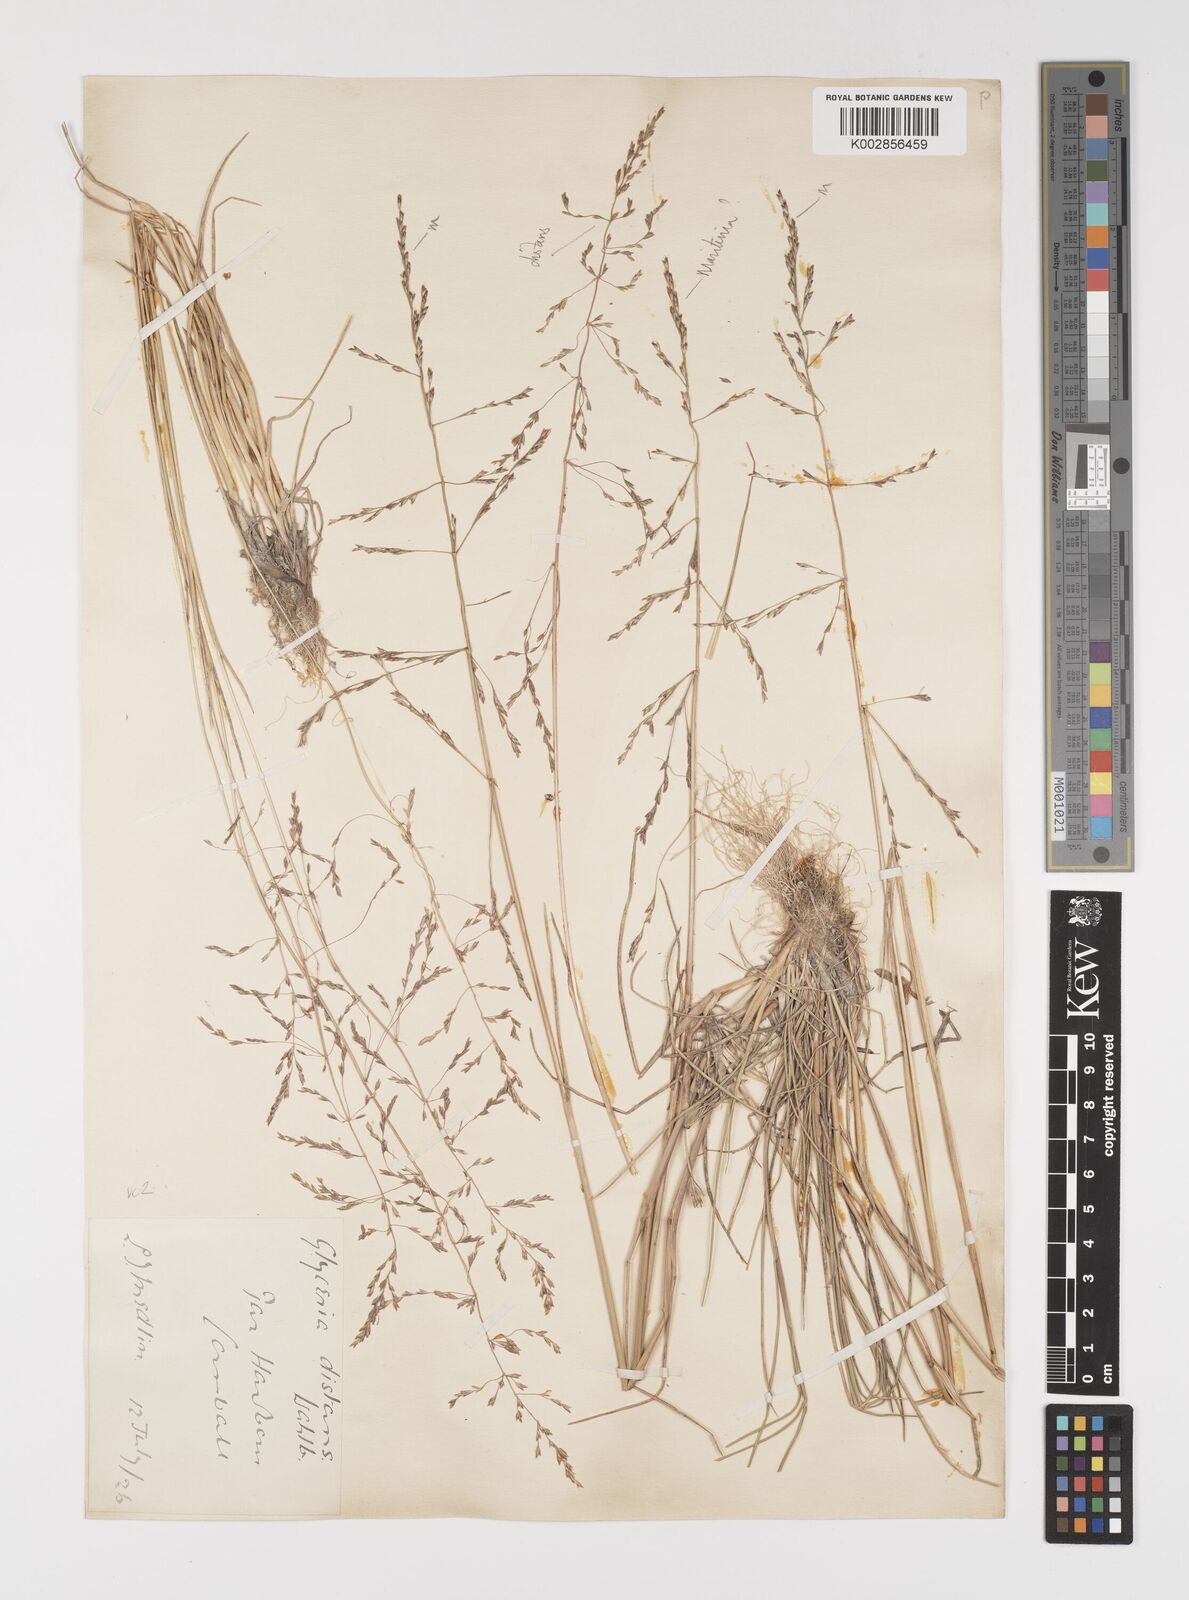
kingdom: Plantae
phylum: Tracheophyta
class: Liliopsida
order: Poales
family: Poaceae
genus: Puccinellia
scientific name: Puccinellia distans
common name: Weeping alkaligrass
